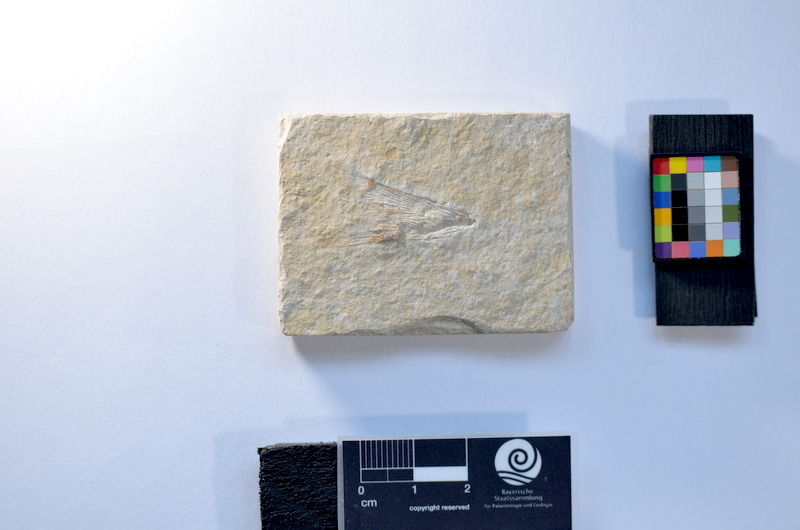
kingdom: Animalia
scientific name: Animalia
